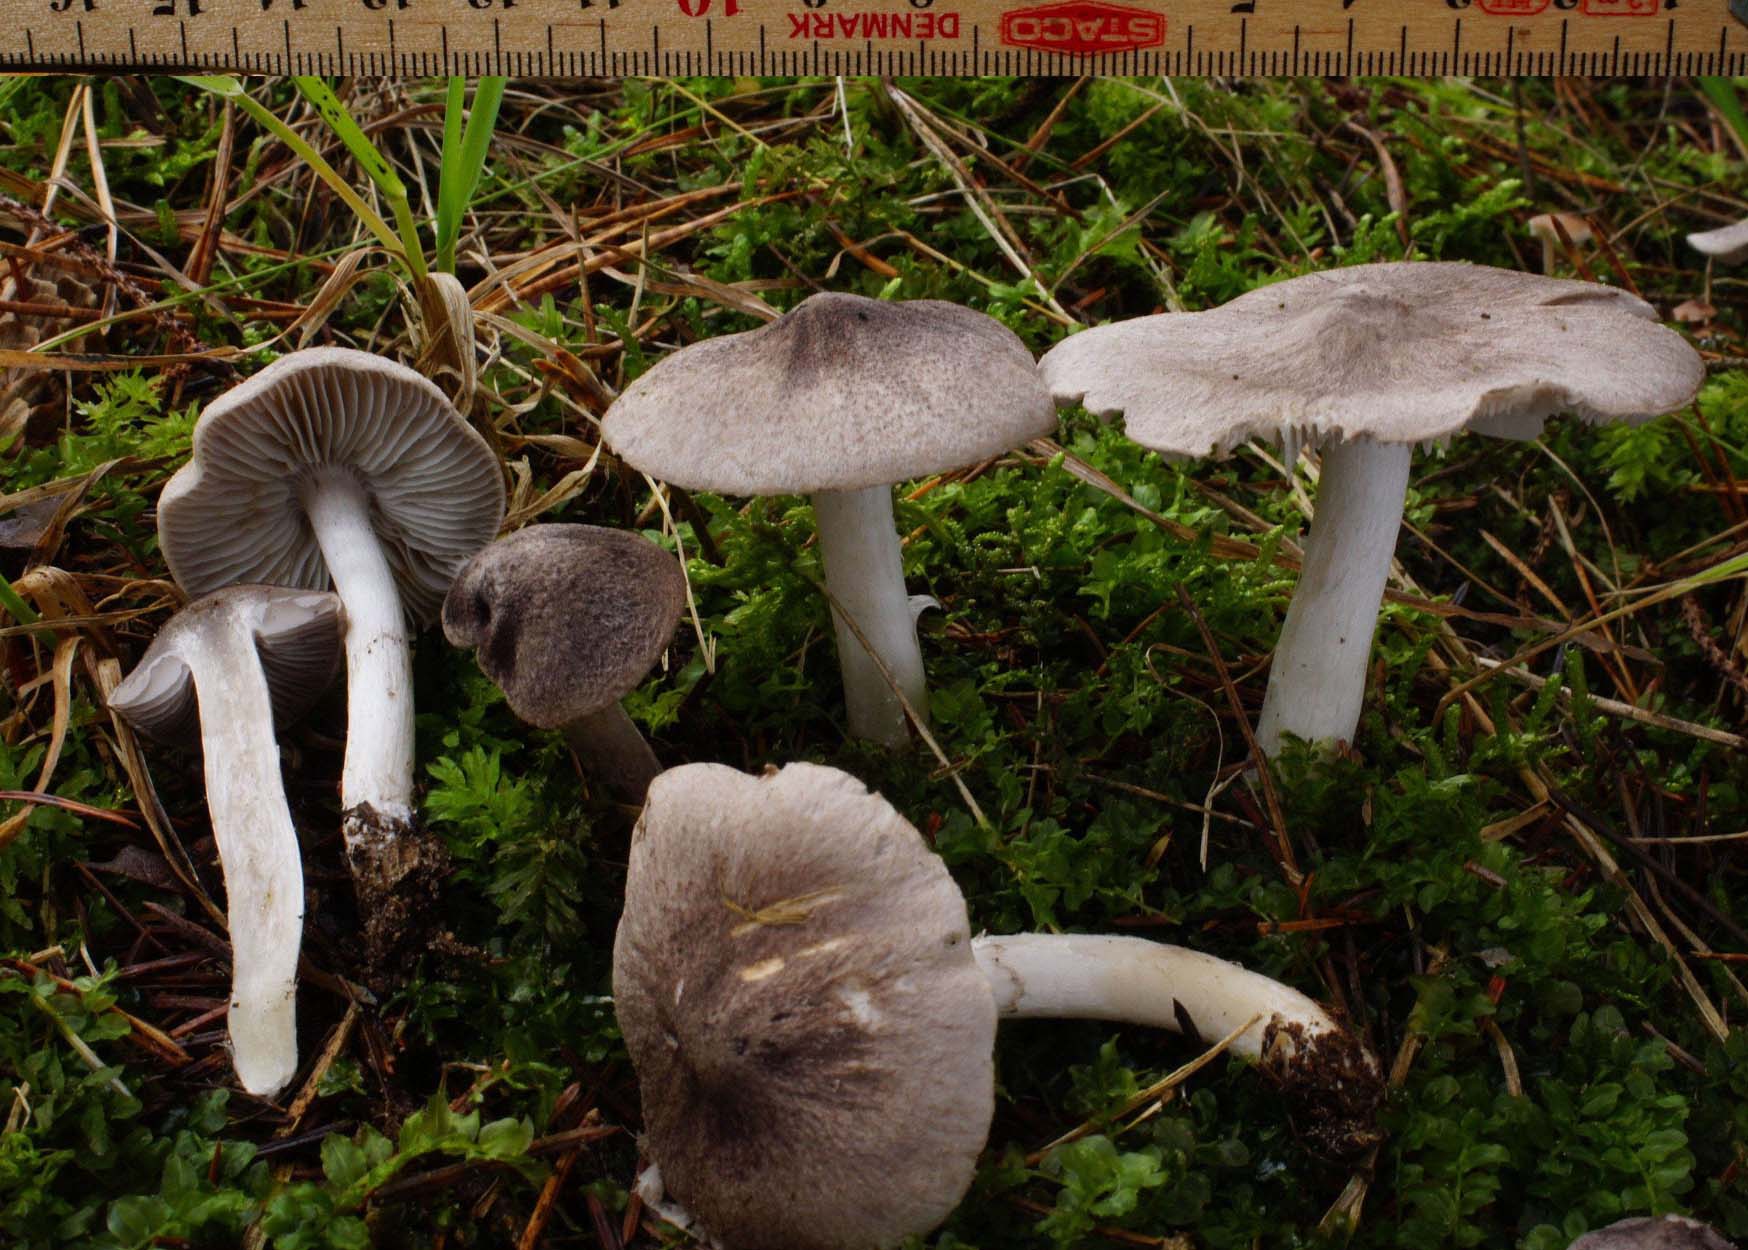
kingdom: Fungi
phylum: Basidiomycota
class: Agaricomycetes
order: Agaricales
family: Tricholomataceae
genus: Tricholoma
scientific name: Tricholoma terreum
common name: jordfarvet ridderhat
